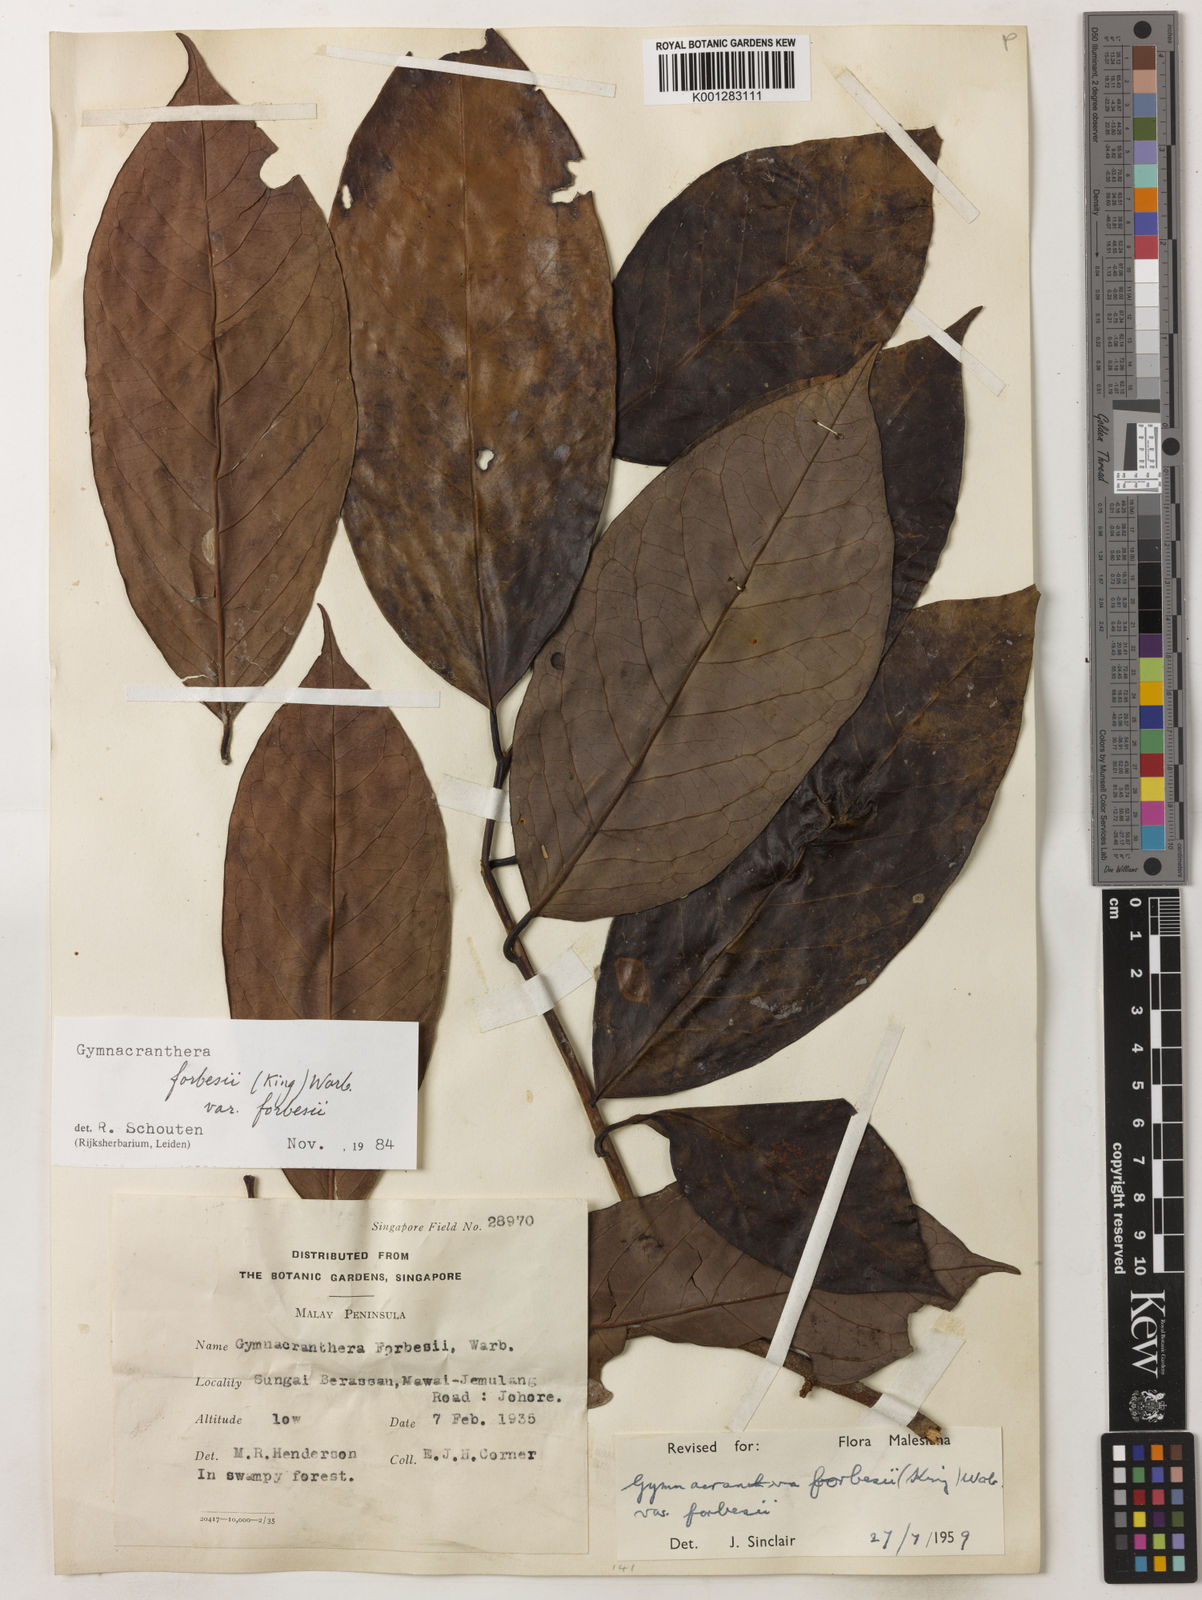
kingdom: Plantae
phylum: Tracheophyta
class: Magnoliopsida
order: Magnoliales
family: Myristicaceae
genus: Gymnacranthera
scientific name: Gymnacranthera forbesii
